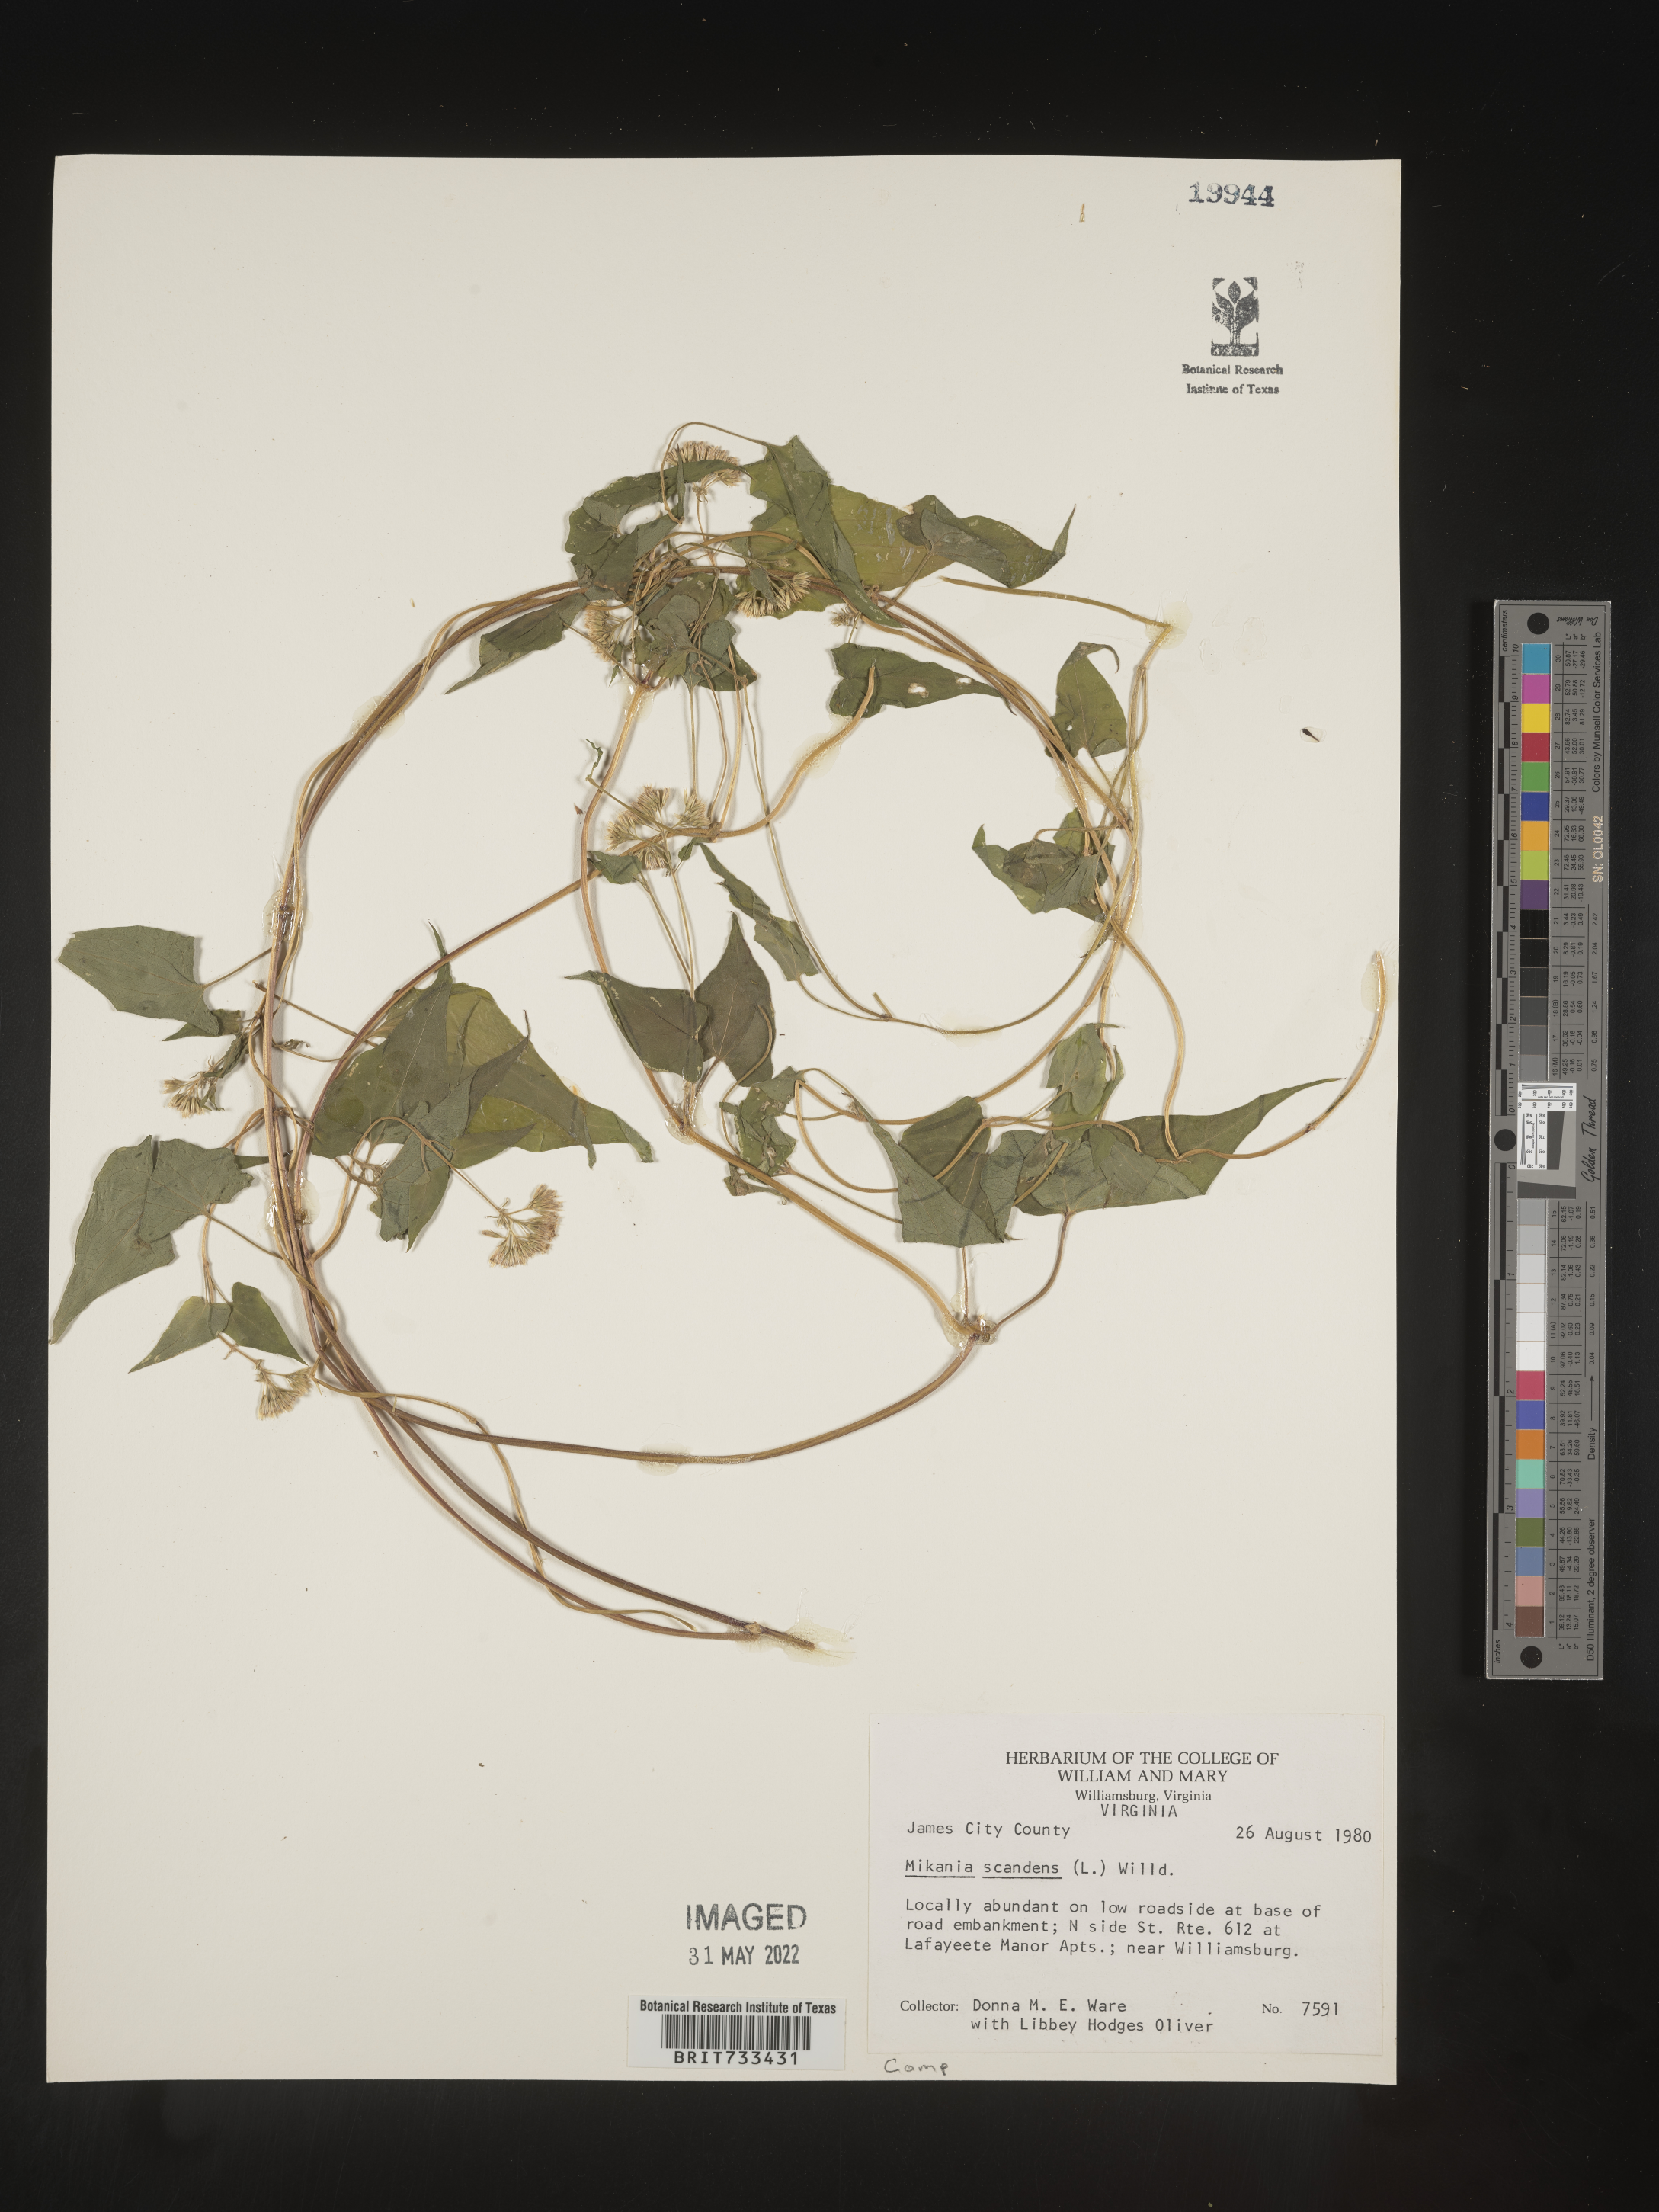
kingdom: Plantae
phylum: Tracheophyta
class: Magnoliopsida
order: Asterales
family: Asteraceae
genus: Mikania
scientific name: Mikania scandens
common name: Climbing hempvine
